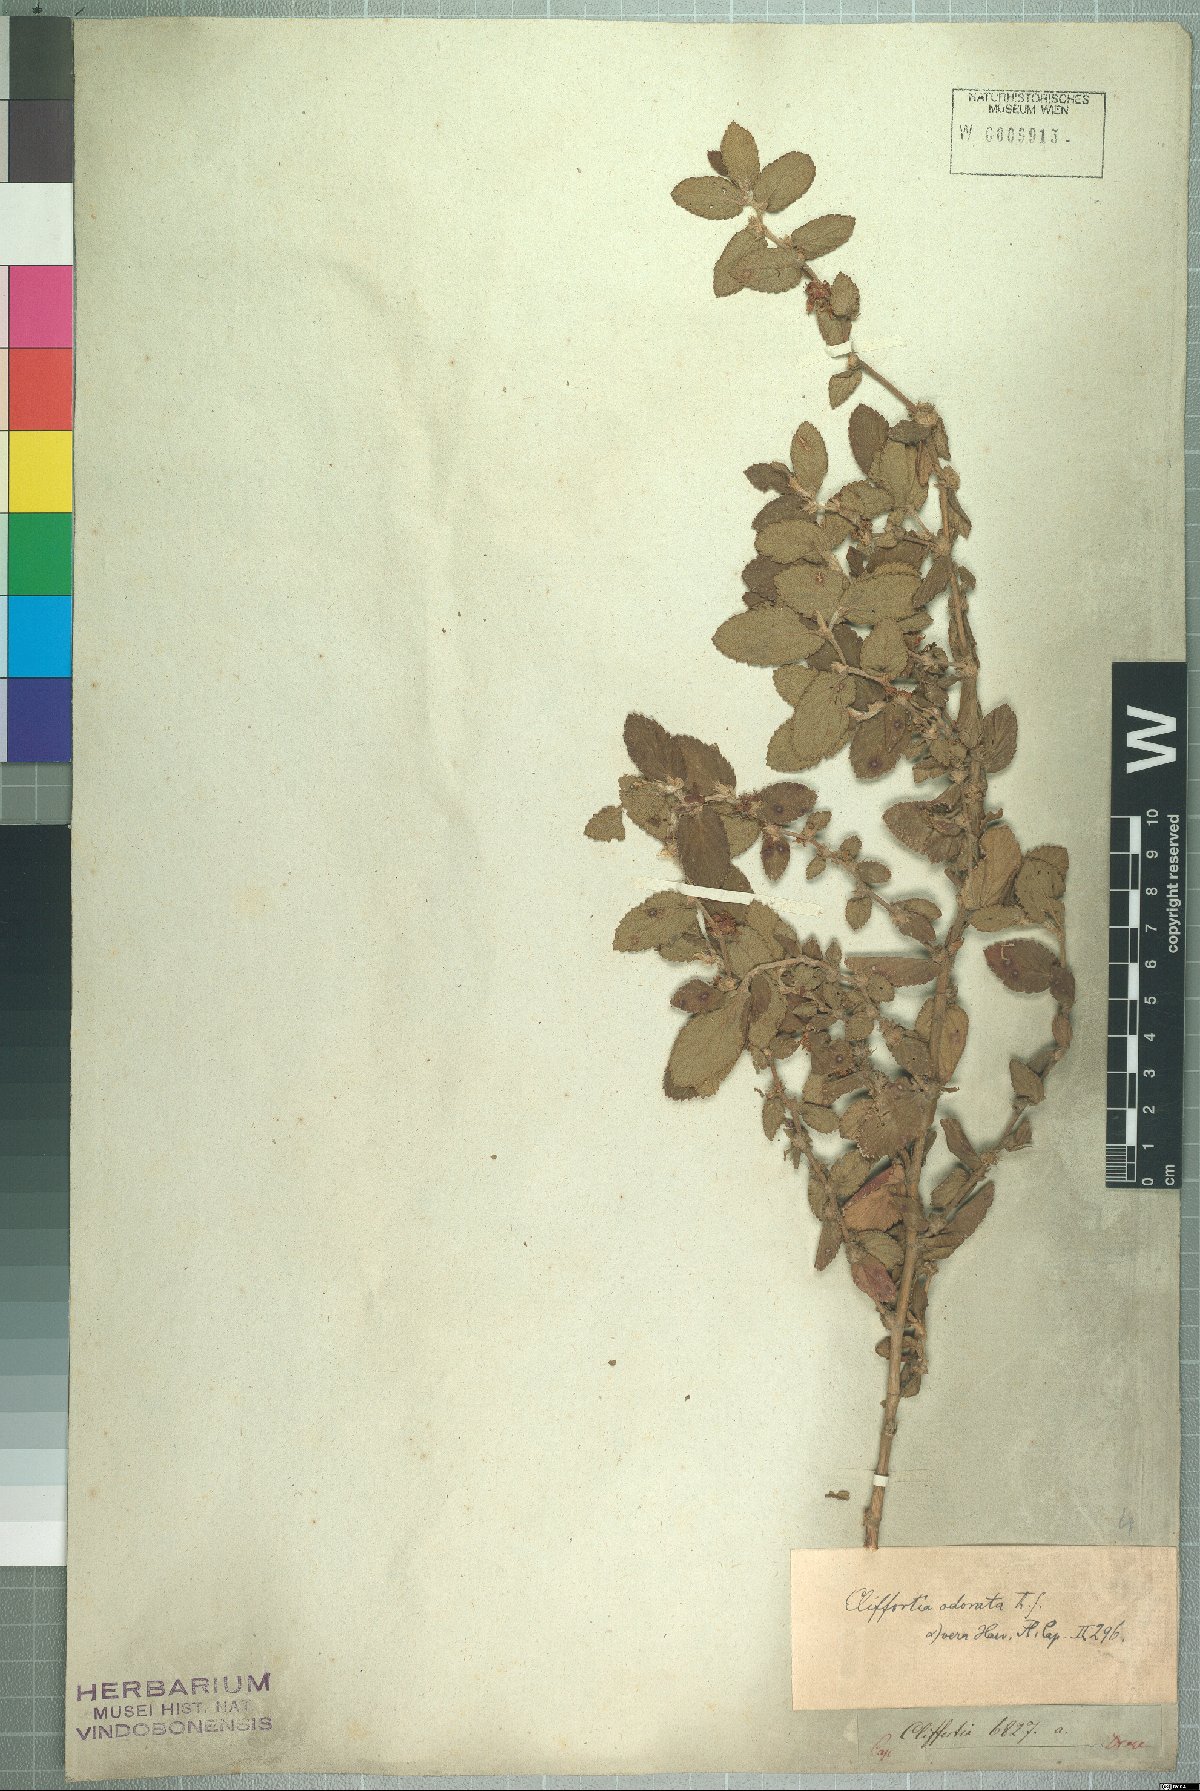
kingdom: Plantae
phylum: Tracheophyta
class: Magnoliopsida
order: Rosales
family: Rosaceae
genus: Cliffortia
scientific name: Cliffortia odorata
